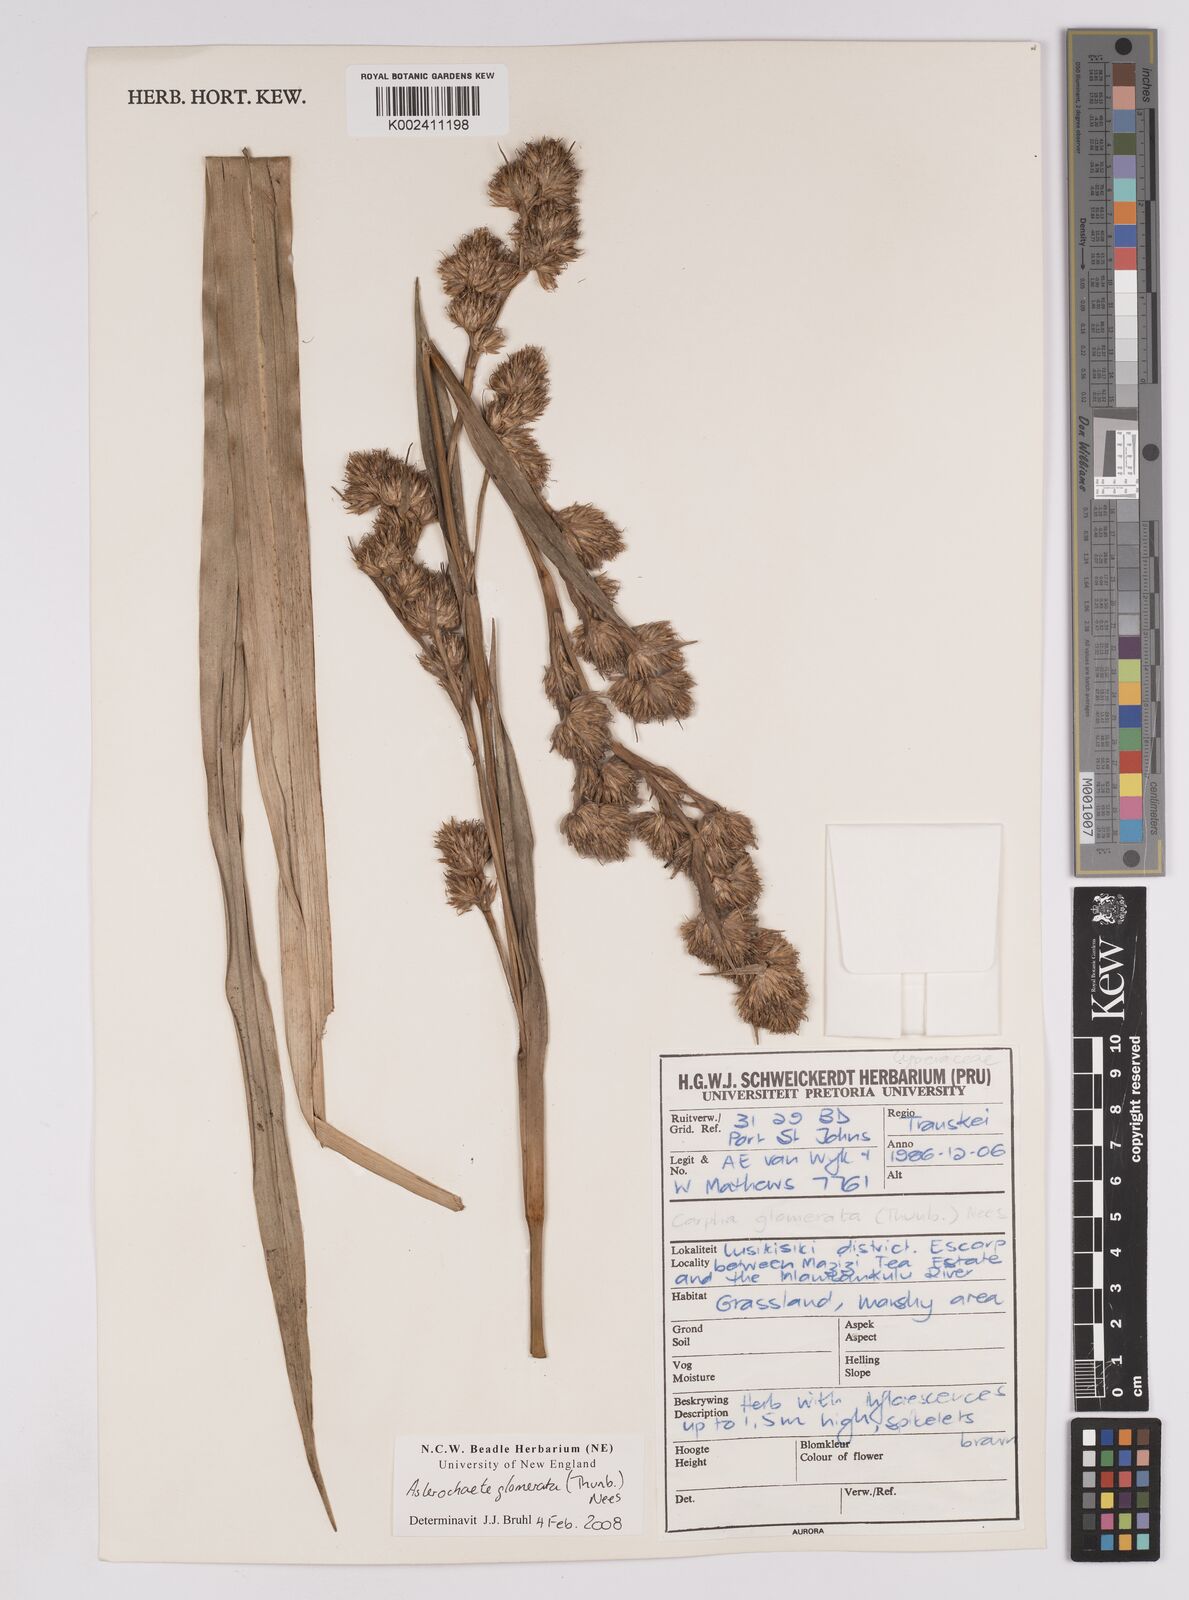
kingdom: Plantae
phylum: Tracheophyta
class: Liliopsida
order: Poales
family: Cyperaceae
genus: Carpha
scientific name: Carpha glomerata
